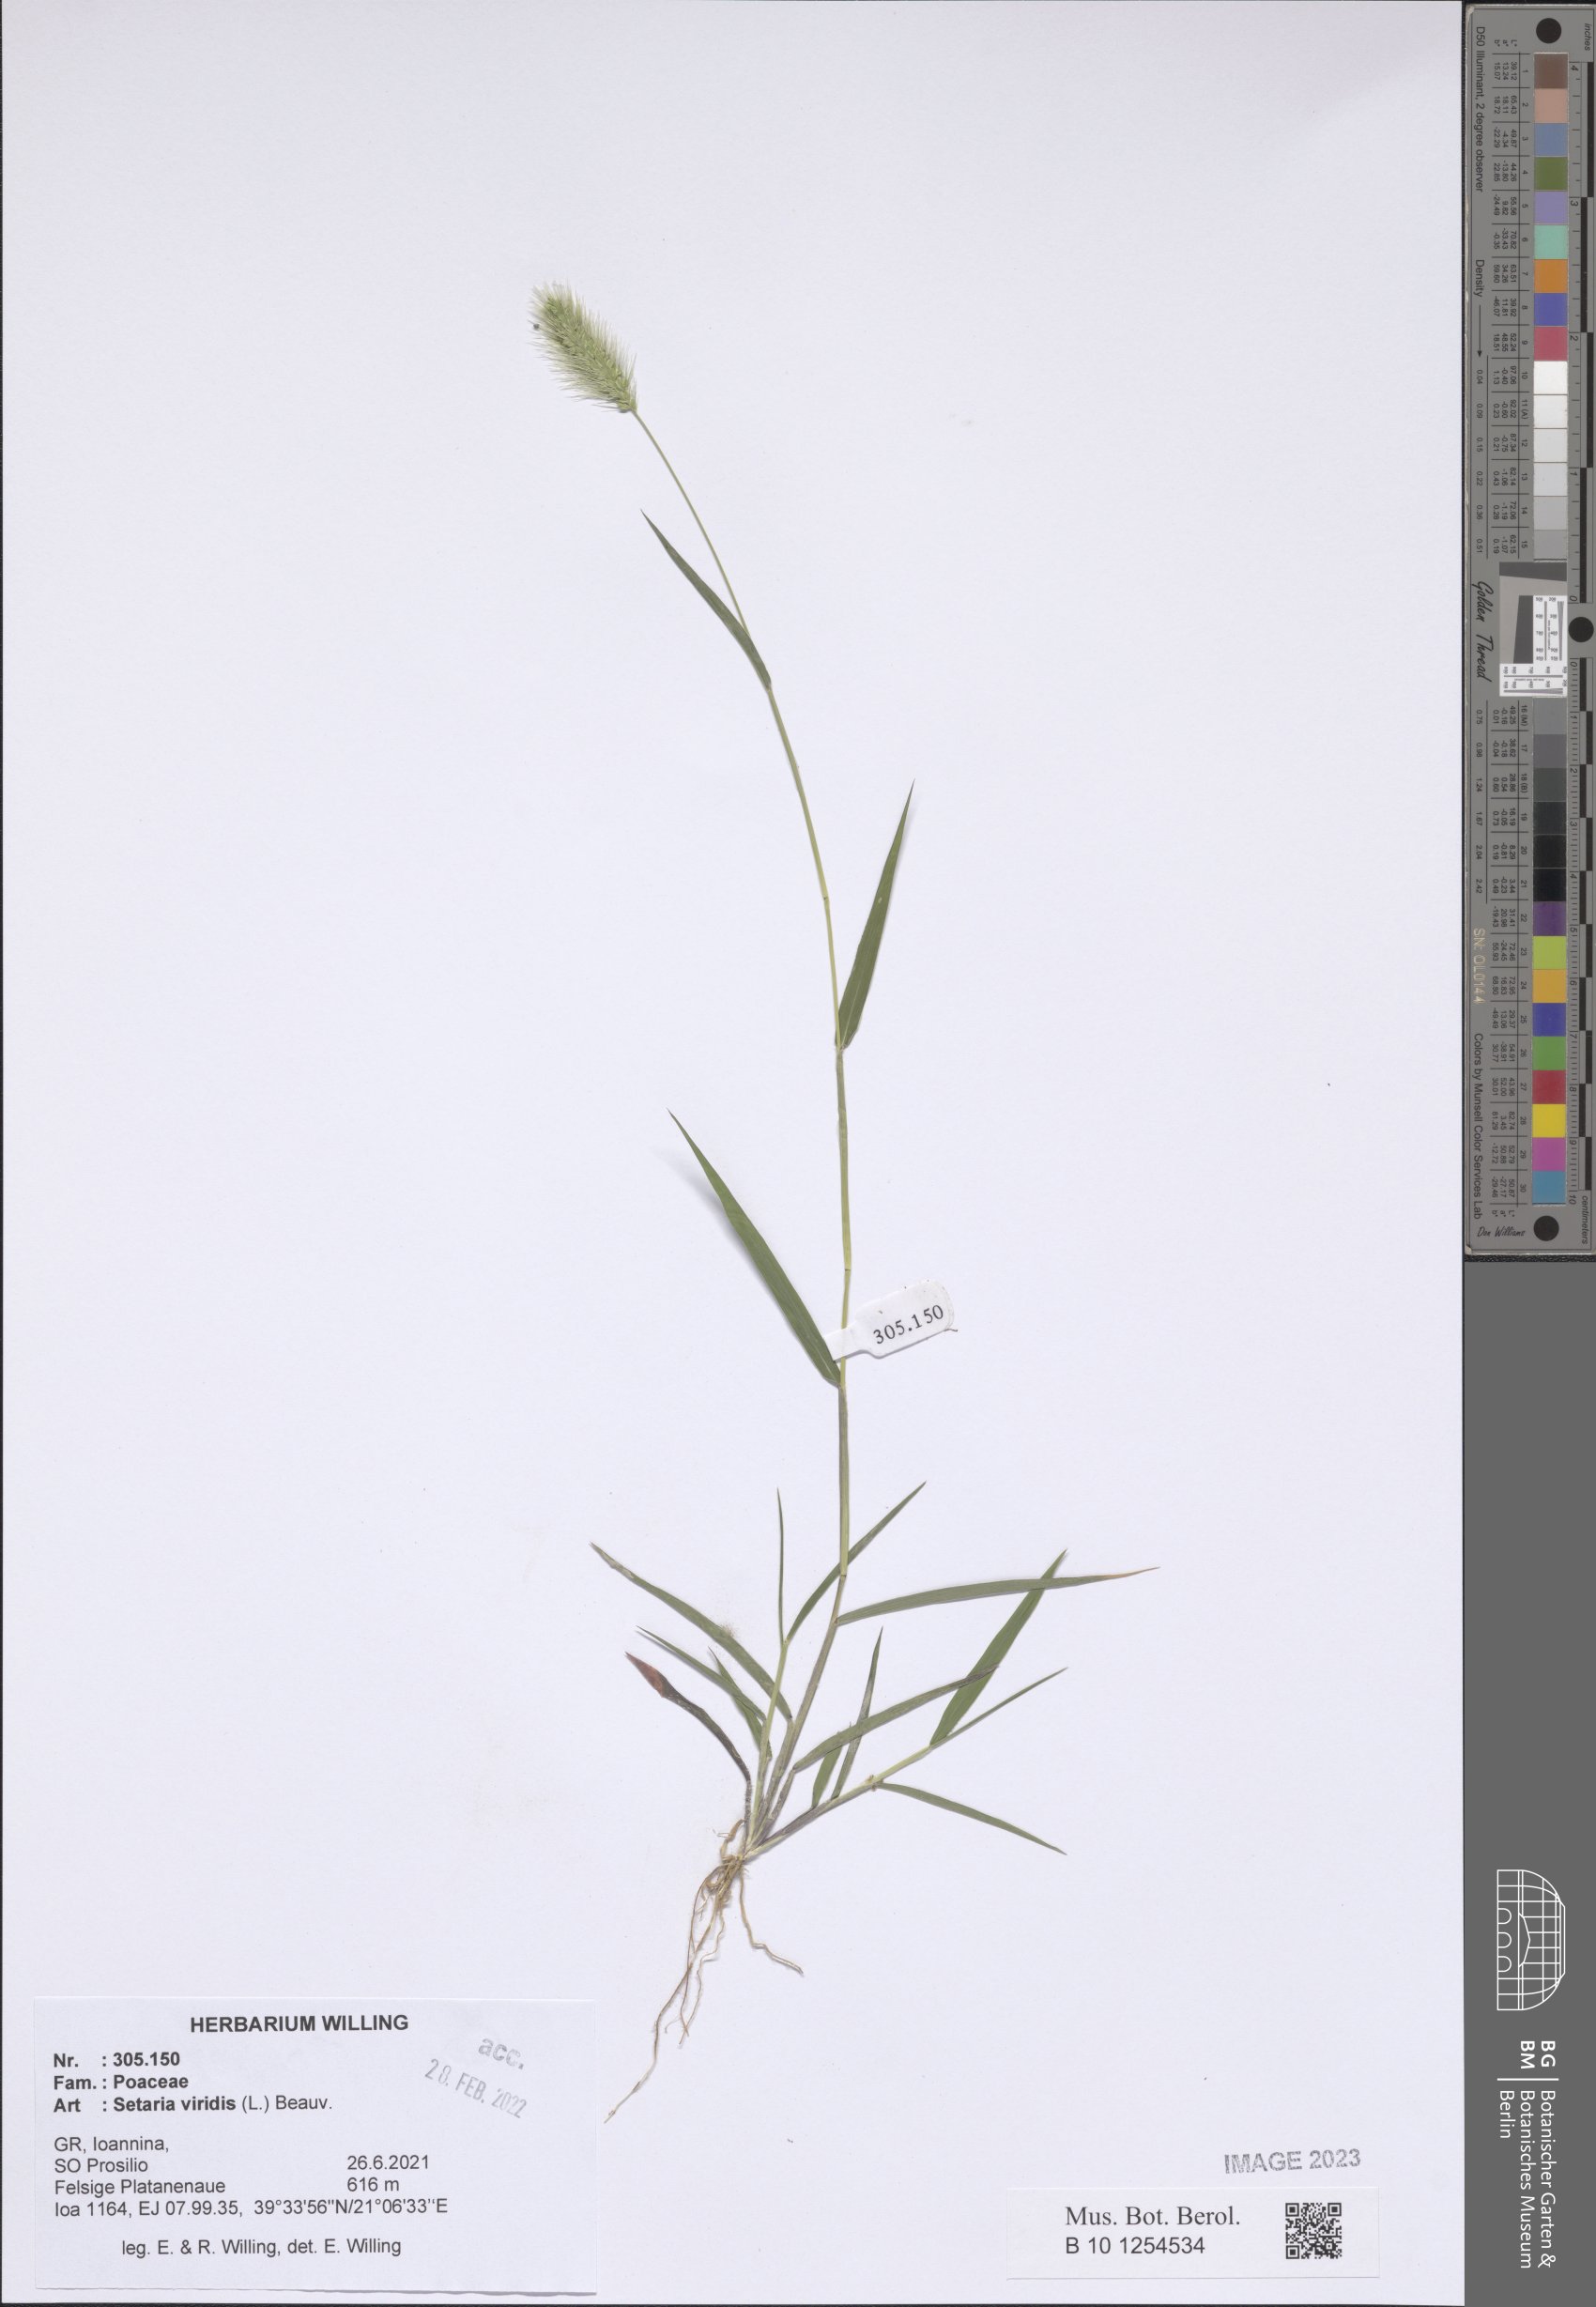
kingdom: Plantae
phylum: Tracheophyta
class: Liliopsida
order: Poales
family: Poaceae
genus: Setaria
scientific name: Setaria viridis
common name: Green bristlegrass
